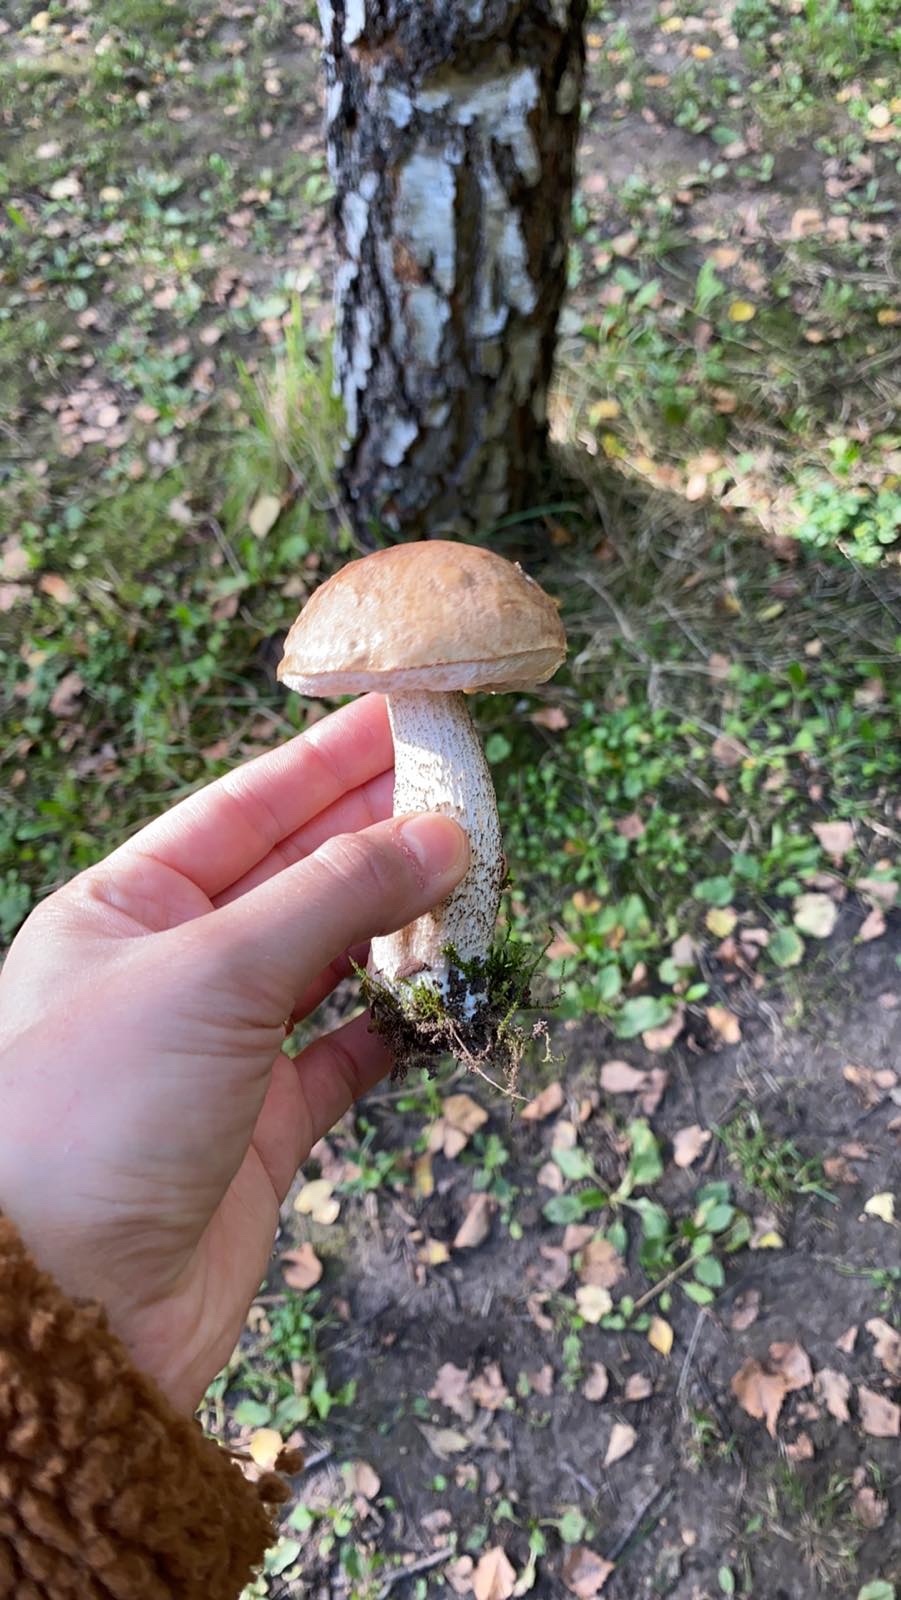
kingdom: Fungi
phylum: Basidiomycota
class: Agaricomycetes
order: Boletales
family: Boletaceae
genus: Leccinum
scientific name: Leccinum
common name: skælrørhat
